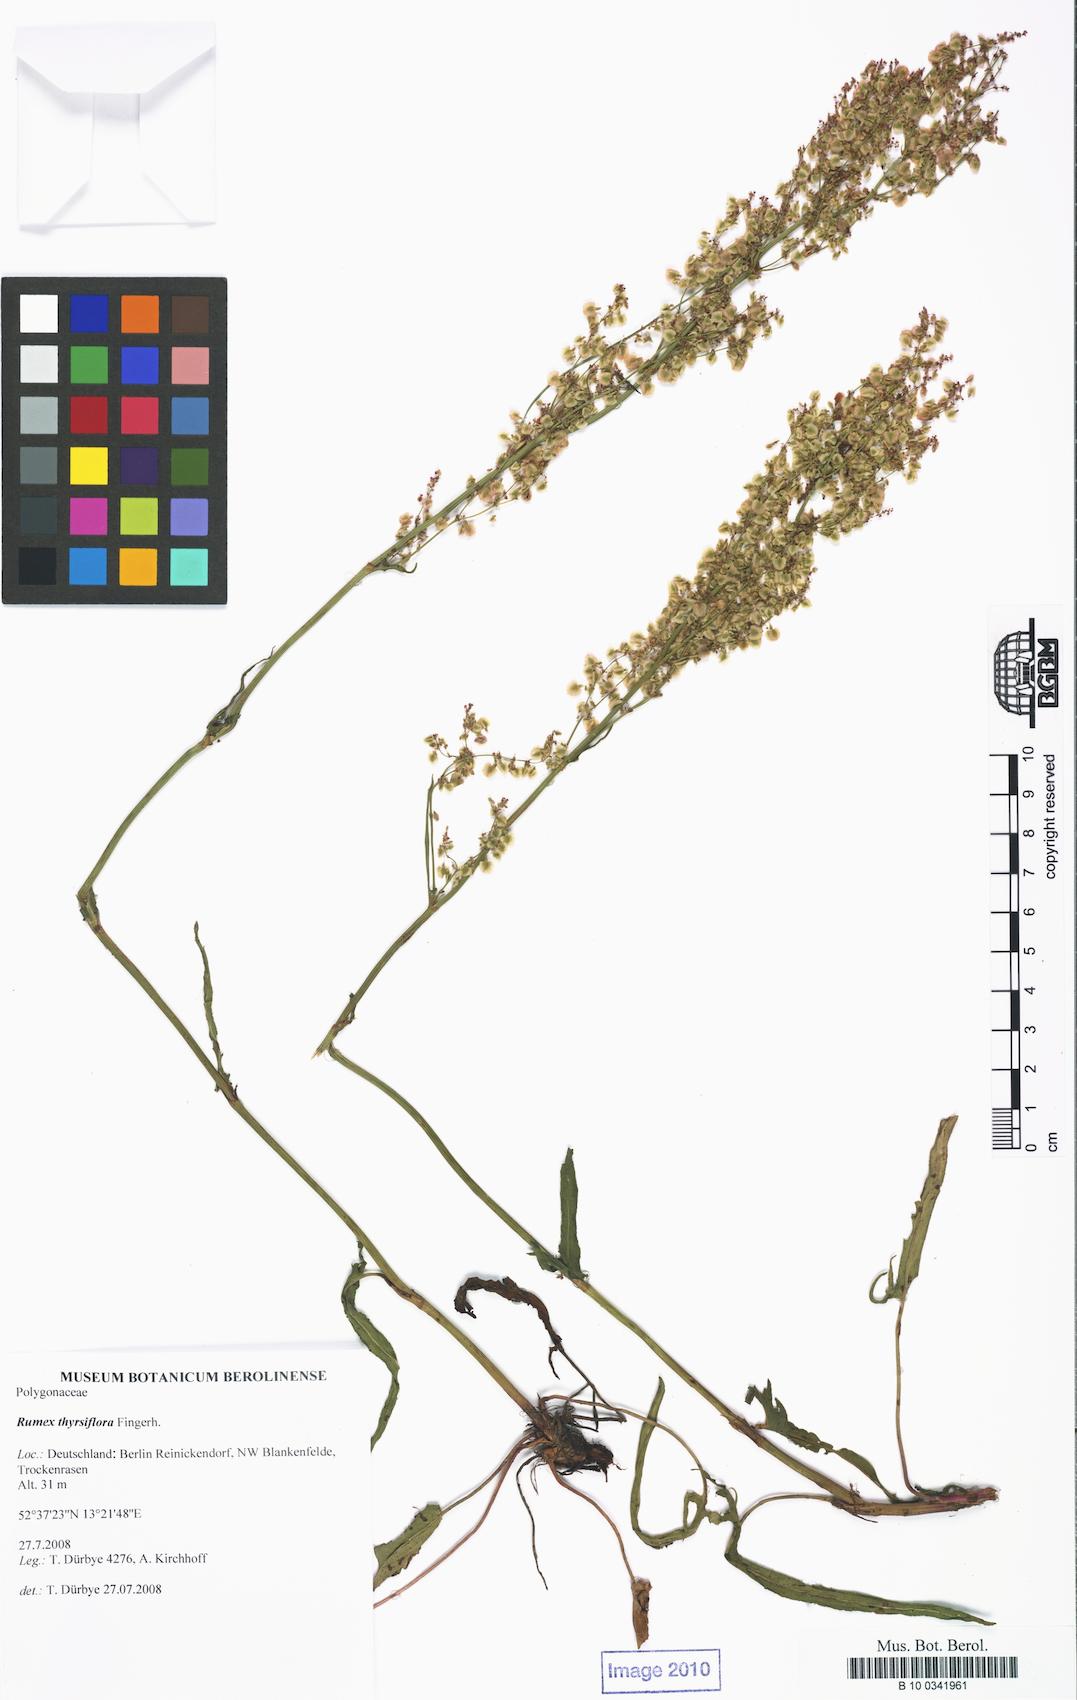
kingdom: Plantae
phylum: Tracheophyta
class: Magnoliopsida
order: Caryophyllales
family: Polygonaceae
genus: Rumex
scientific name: Rumex thyrsiflorus
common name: Garden sorrel
